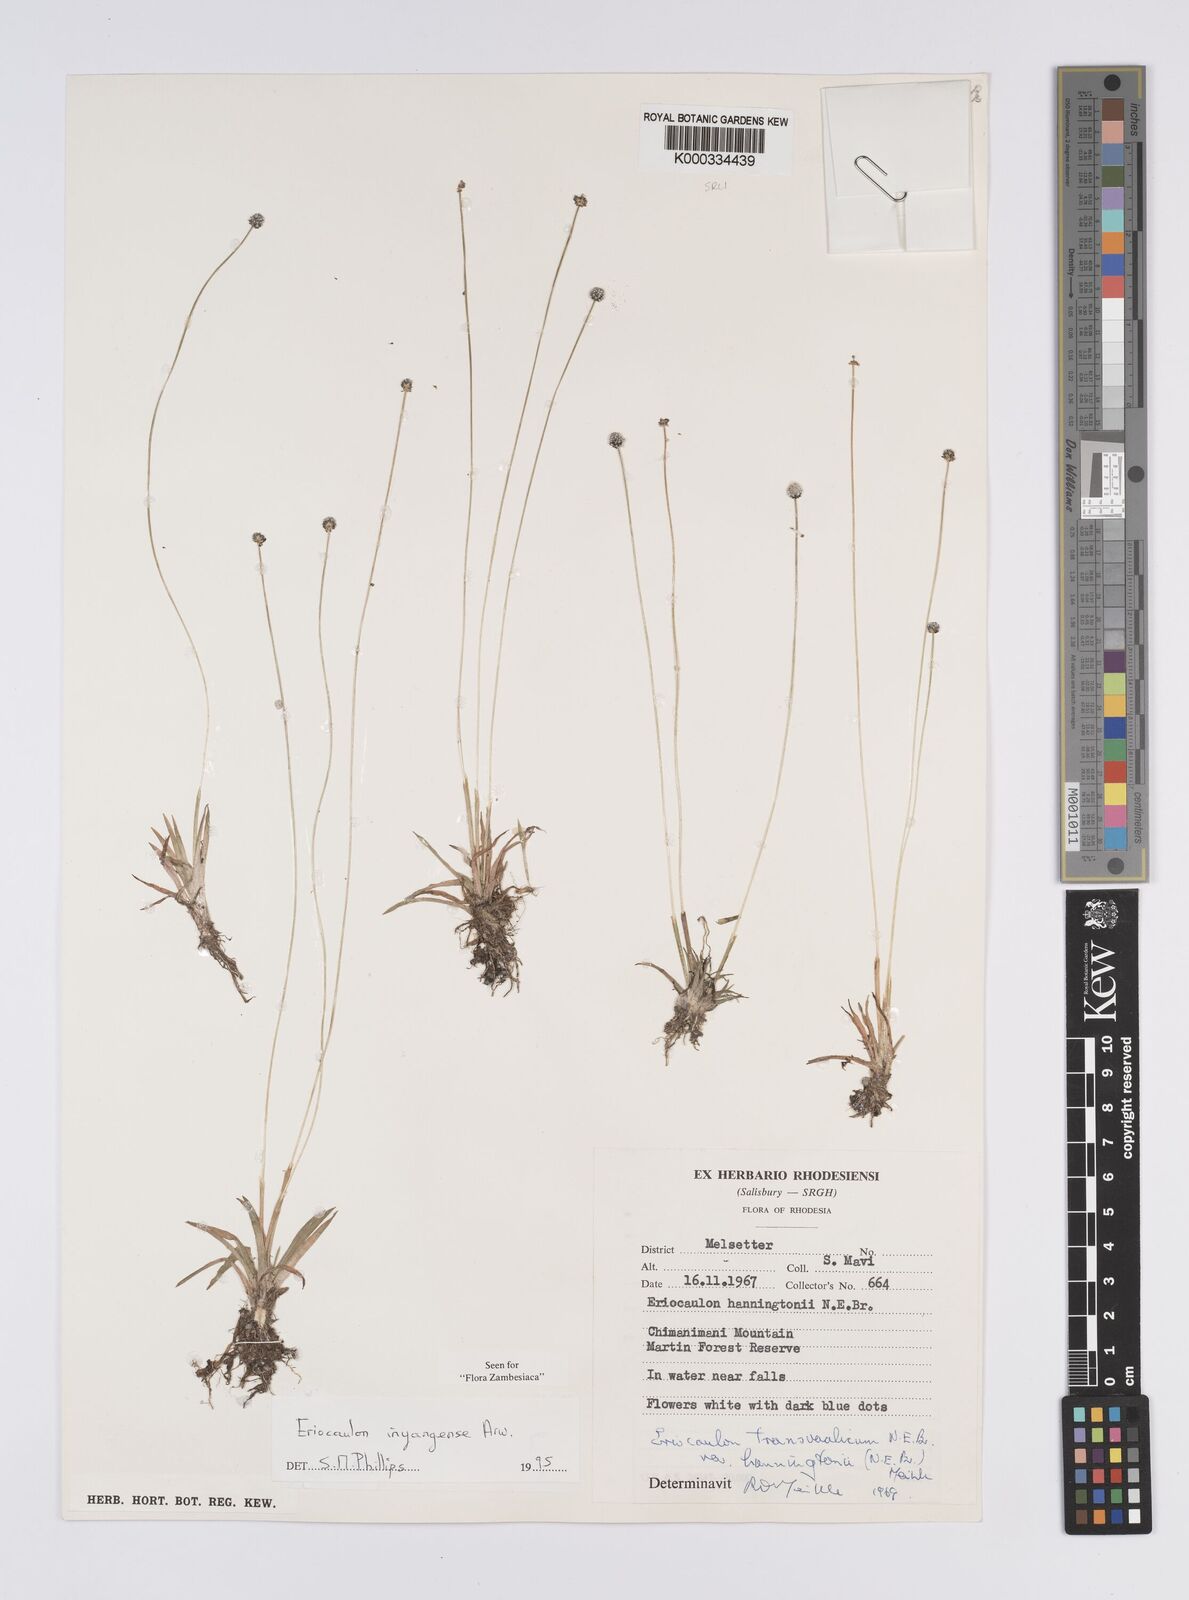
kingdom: Plantae
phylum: Tracheophyta
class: Liliopsida
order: Poales
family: Eriocaulaceae
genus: Eriocaulon
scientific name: Eriocaulon inyangense
